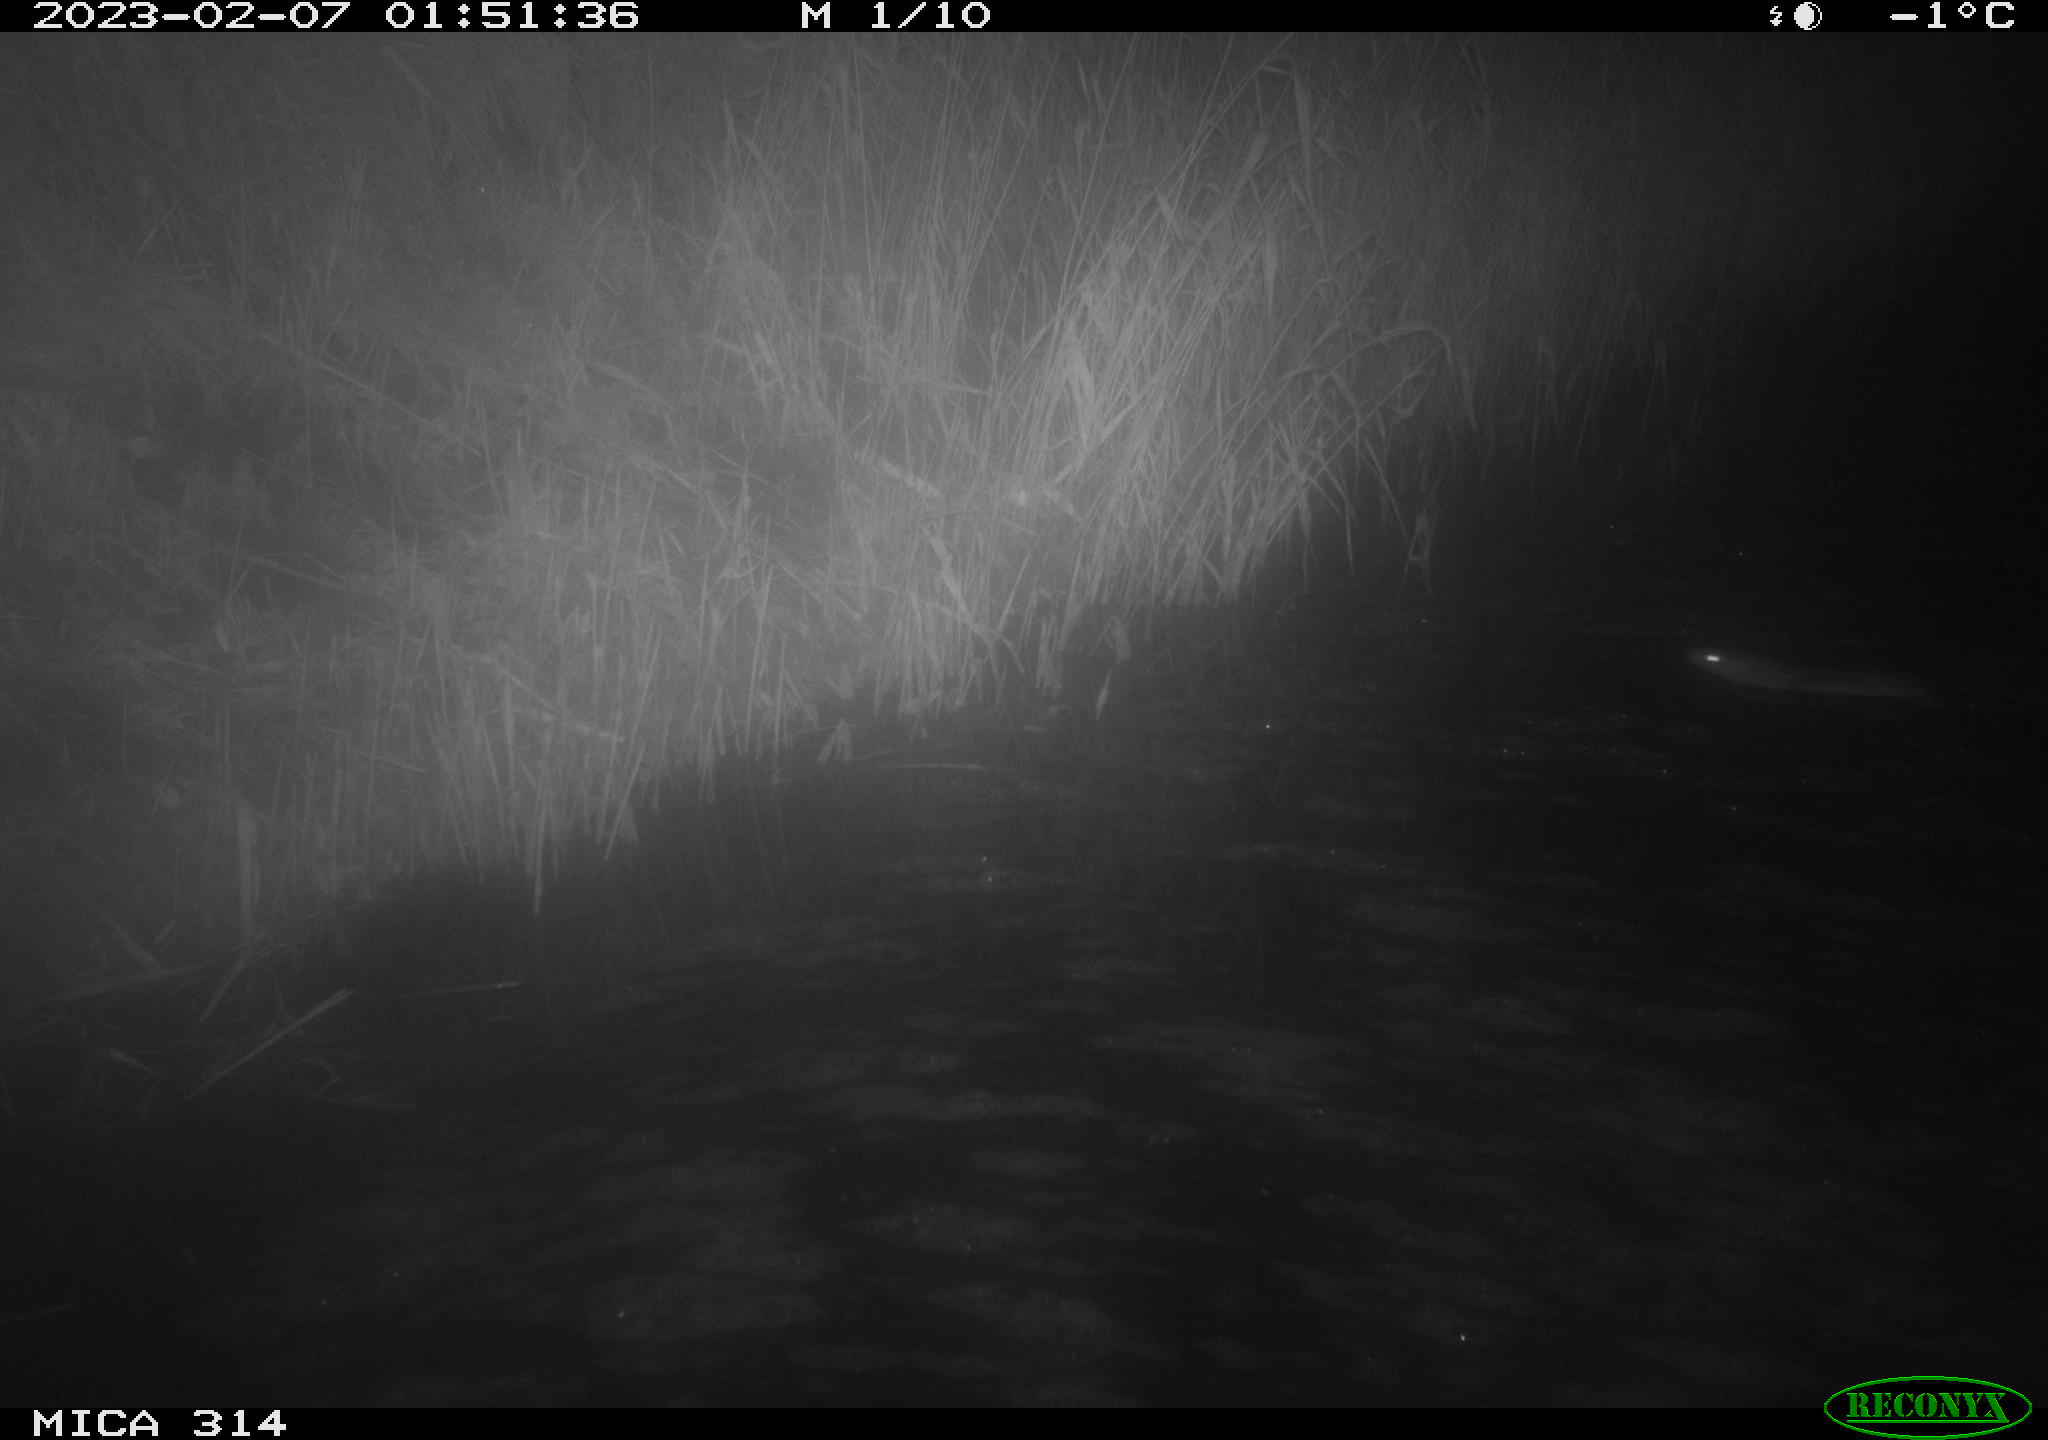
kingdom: Animalia
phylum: Chordata
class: Mammalia
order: Rodentia
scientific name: Rodentia
